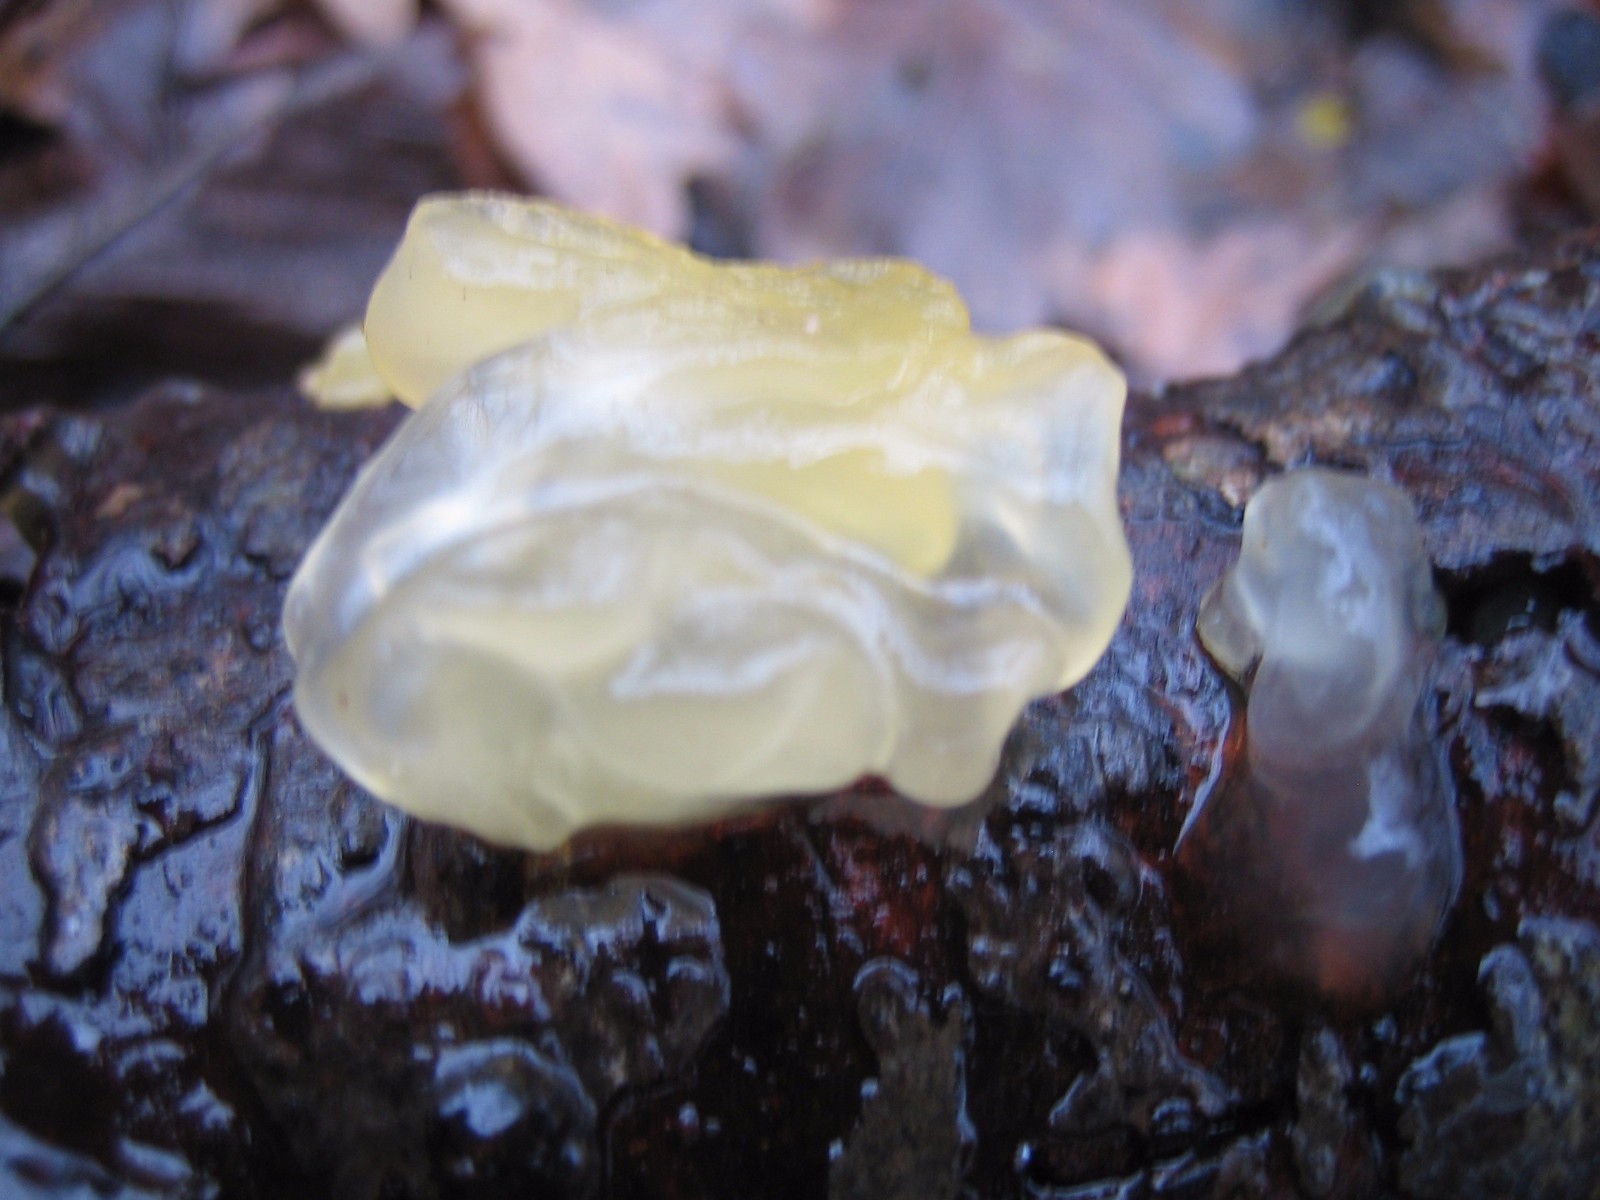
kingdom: Fungi
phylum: Basidiomycota
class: Tremellomycetes
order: Tremellales
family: Tremellaceae
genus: Tremella
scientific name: Tremella mesenterica
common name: gul bævresvamp
